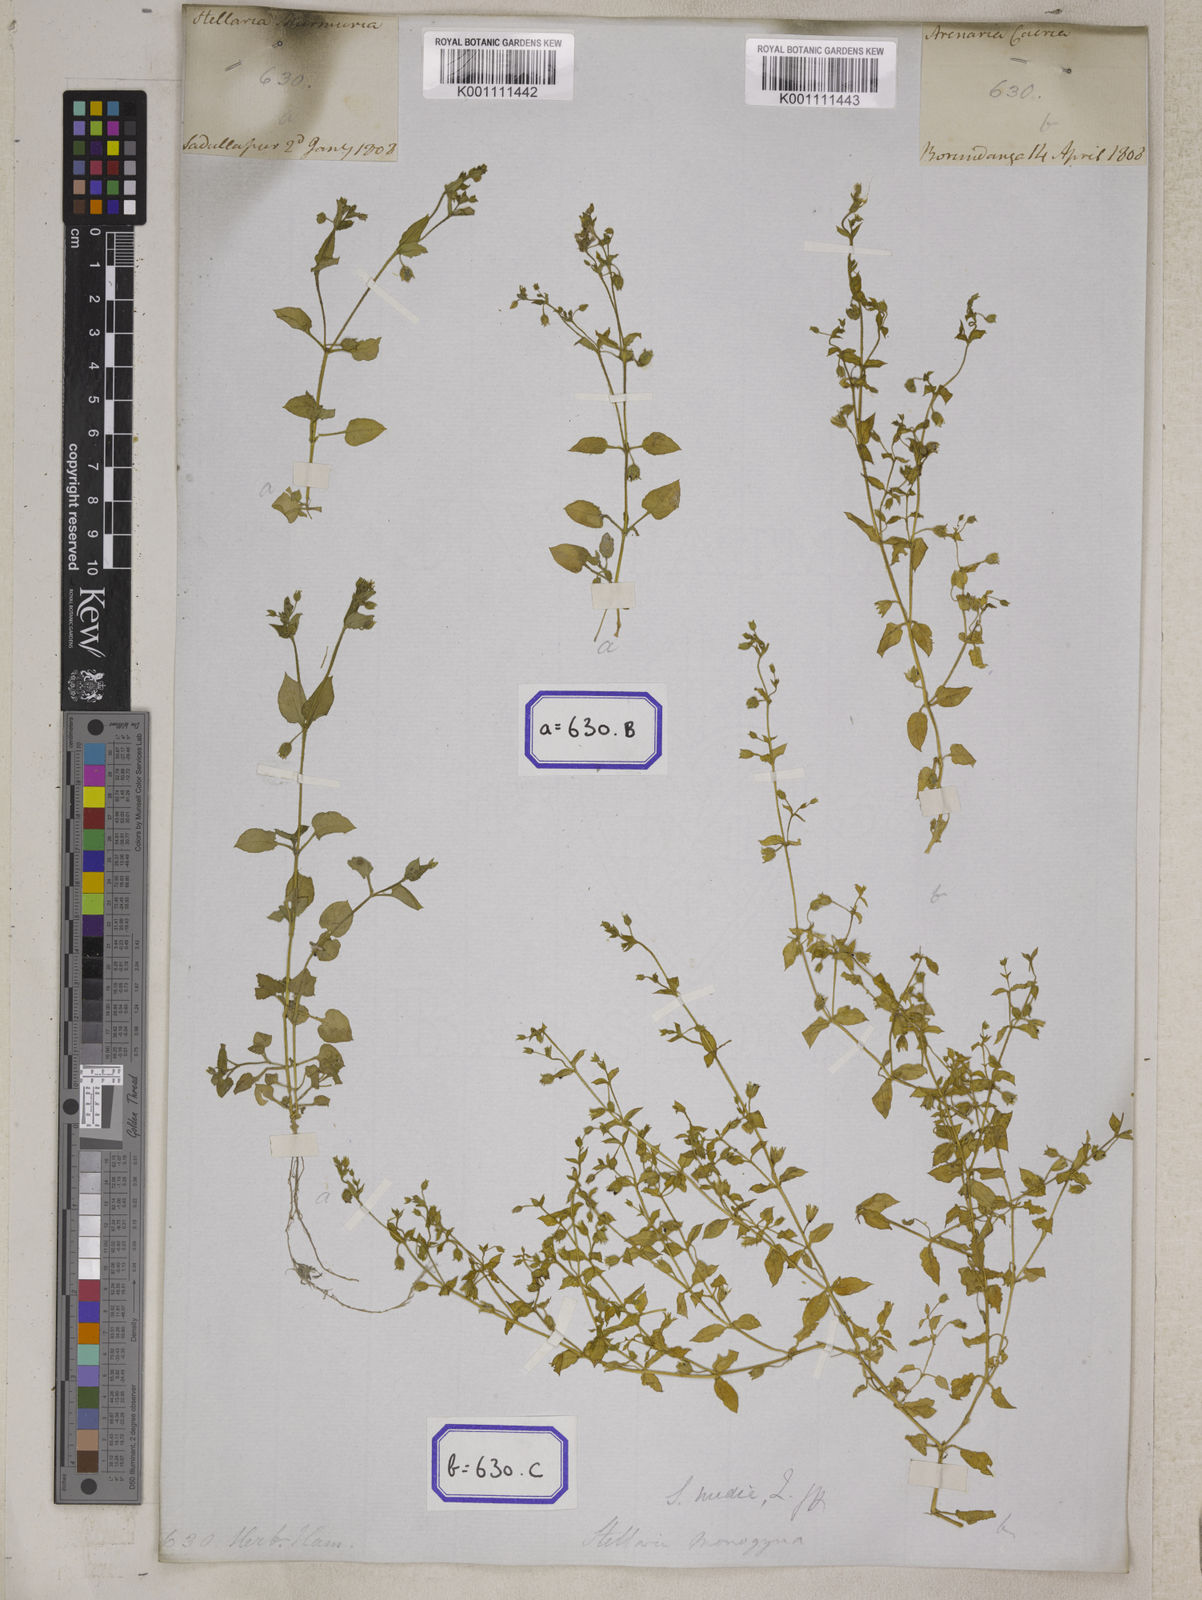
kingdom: Plantae
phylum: Tracheophyta
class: Magnoliopsida
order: Caryophyllales
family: Caryophyllaceae
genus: Spergula
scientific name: Spergula
